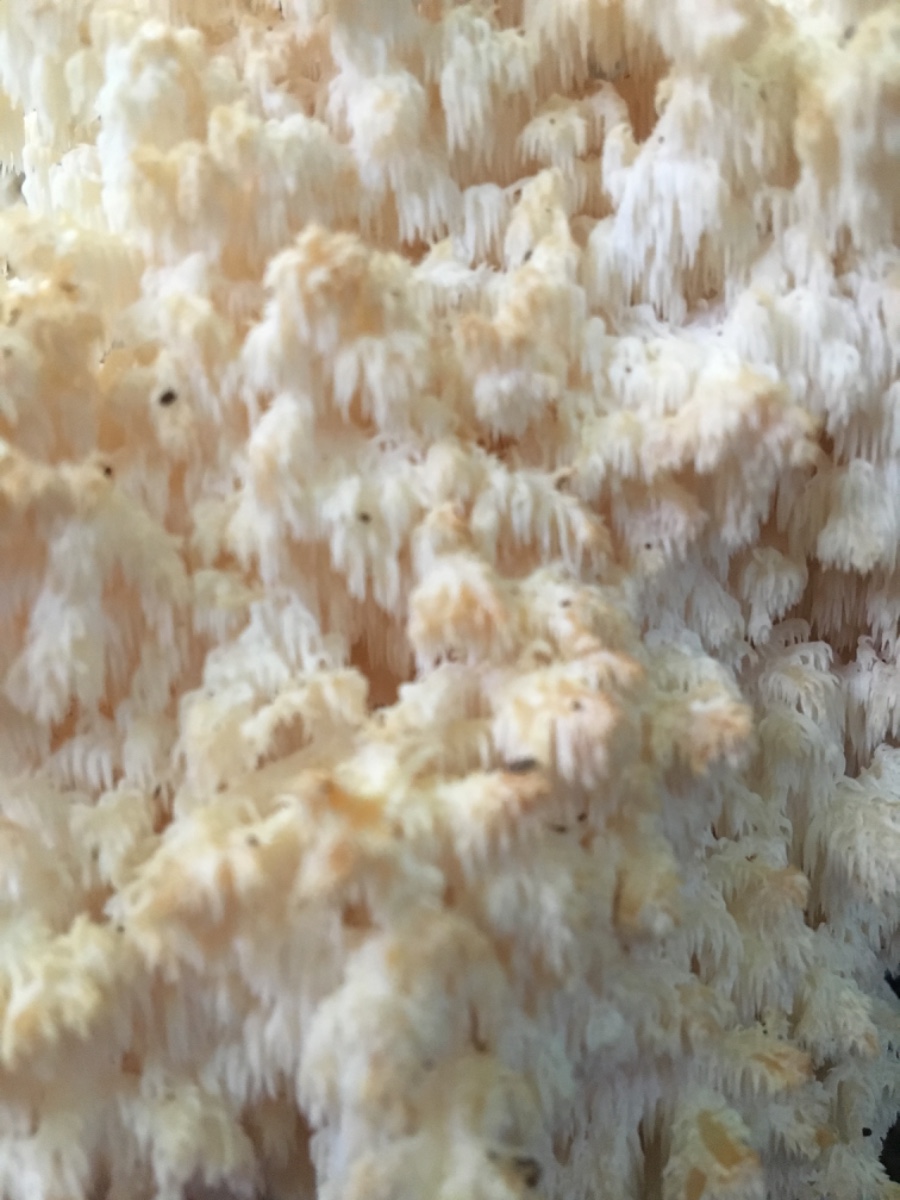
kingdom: Fungi
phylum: Basidiomycota
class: Agaricomycetes
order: Russulales
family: Hericiaceae
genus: Hericium
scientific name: Hericium coralloides
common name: koralpigsvamp
